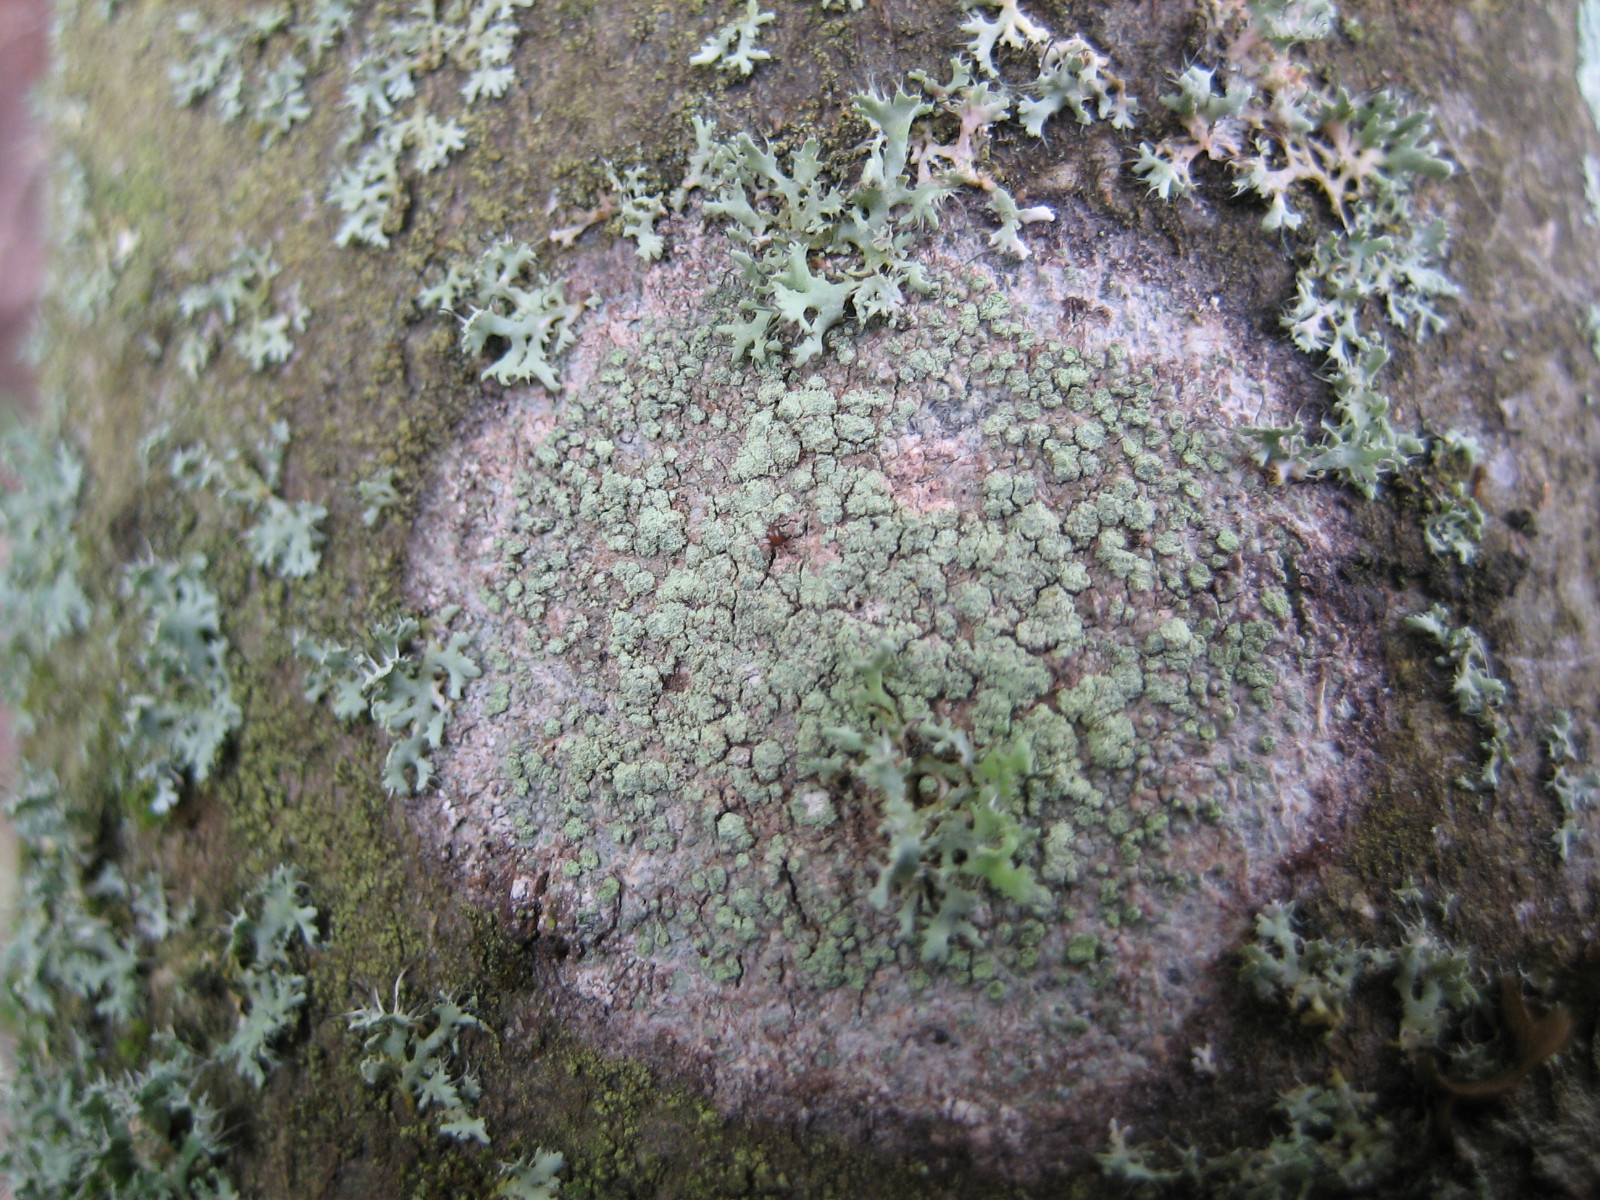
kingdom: Fungi
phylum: Ascomycota
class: Lecanoromycetes
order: Caliciales
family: Caliciaceae
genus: Buellia
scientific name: Buellia griseovirens
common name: grågrøn sortskivelav
